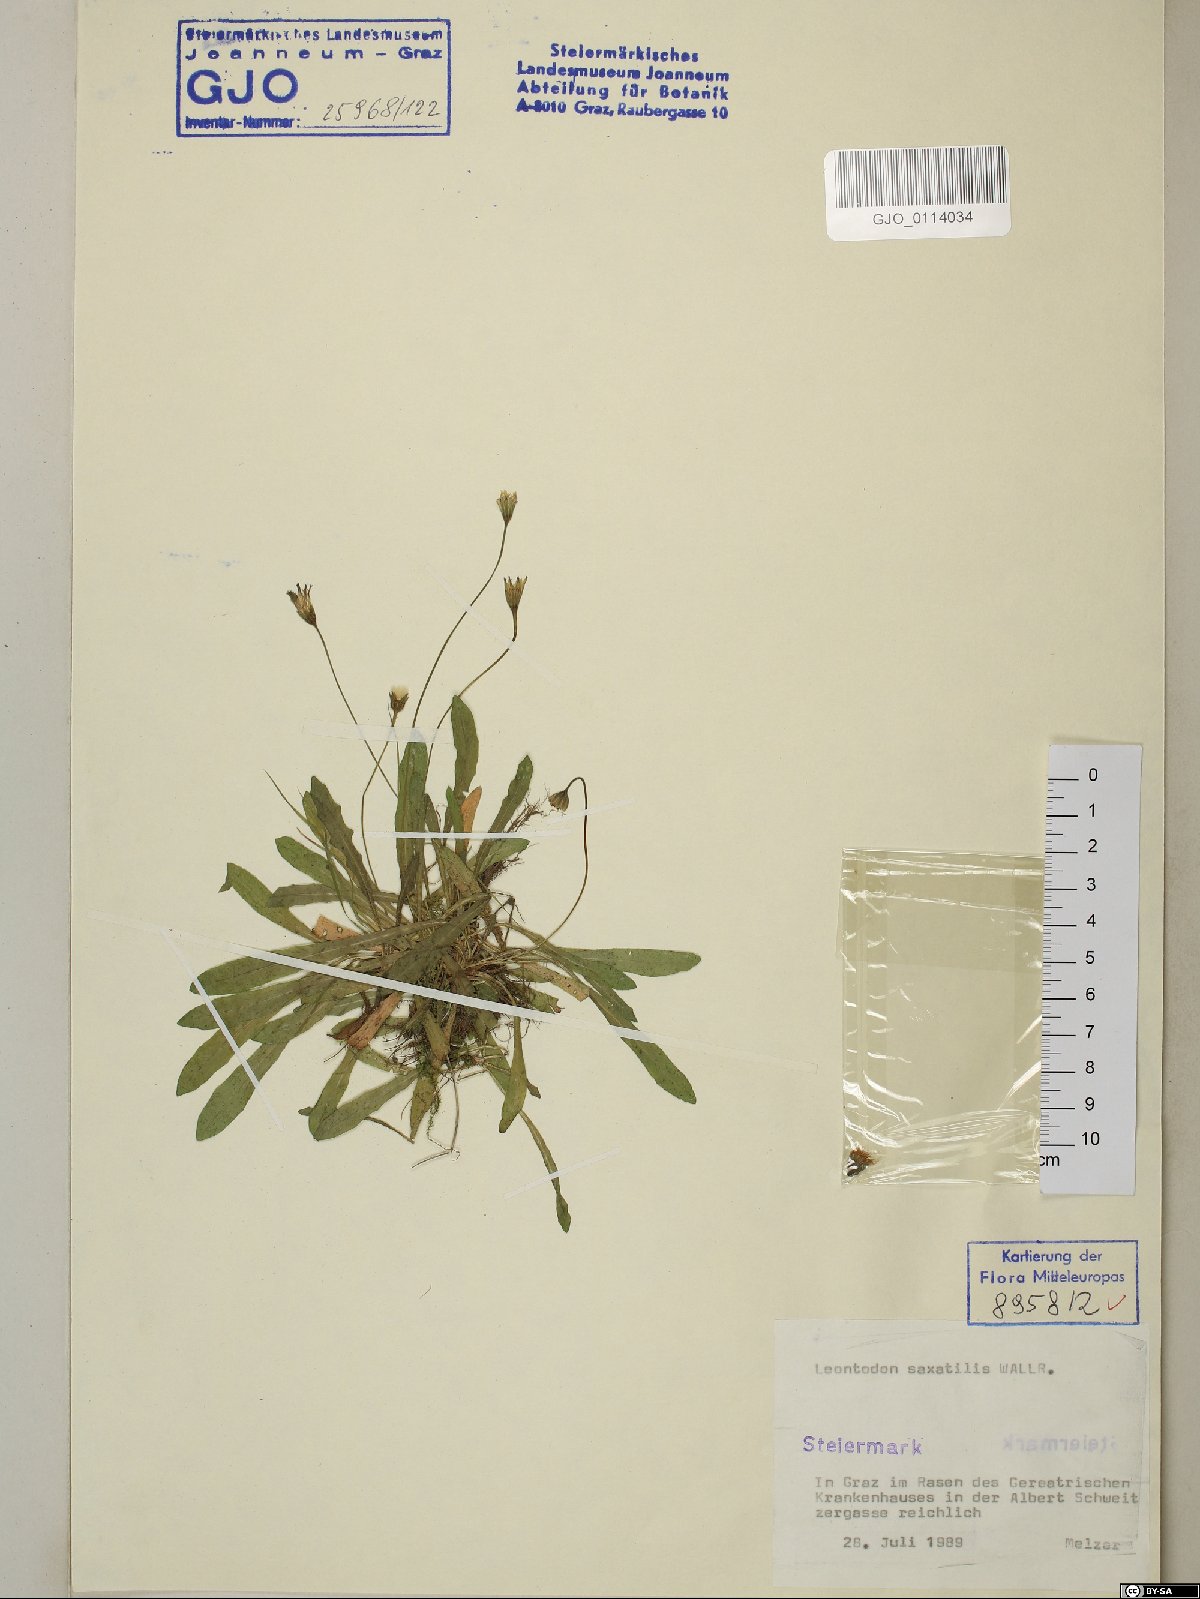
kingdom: Plantae
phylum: Tracheophyta
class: Magnoliopsida
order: Asterales
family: Asteraceae
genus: Thrincia
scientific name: Thrincia saxatilis
